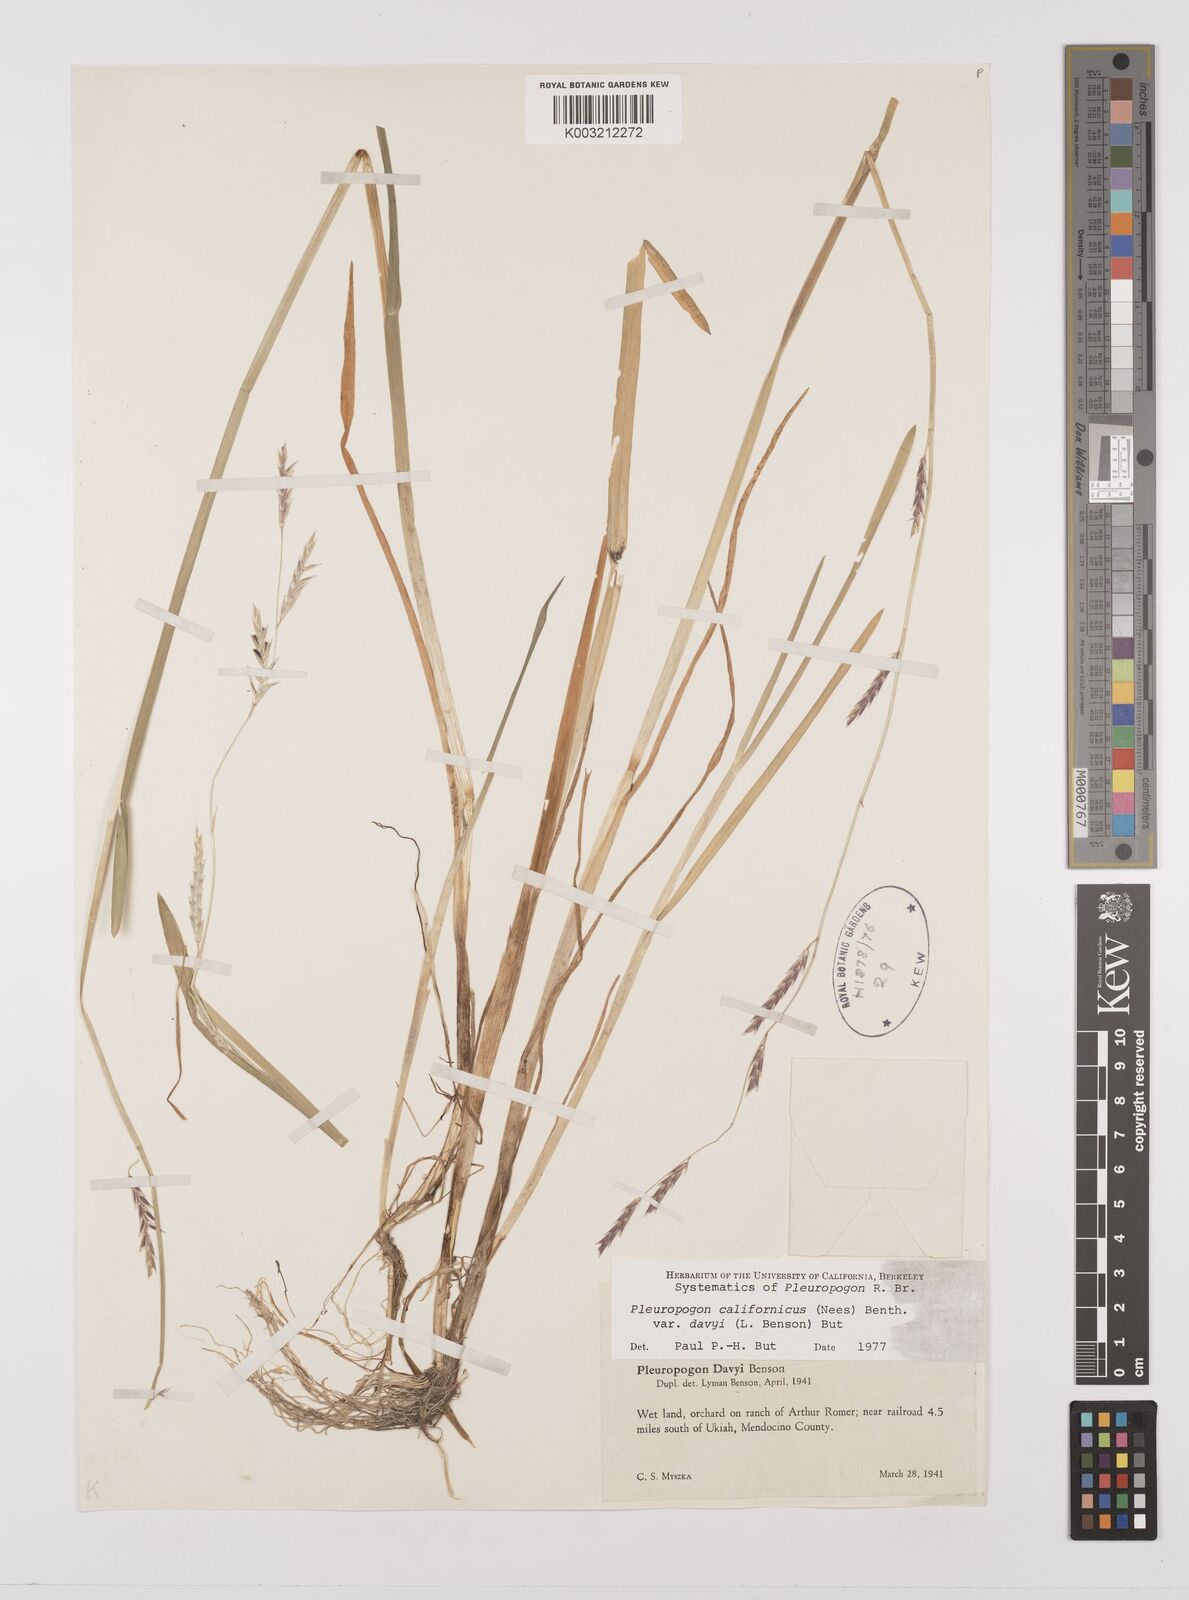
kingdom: Plantae
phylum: Tracheophyta
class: Liliopsida
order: Poales
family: Poaceae
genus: Pleuropogon
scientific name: Pleuropogon davyi
